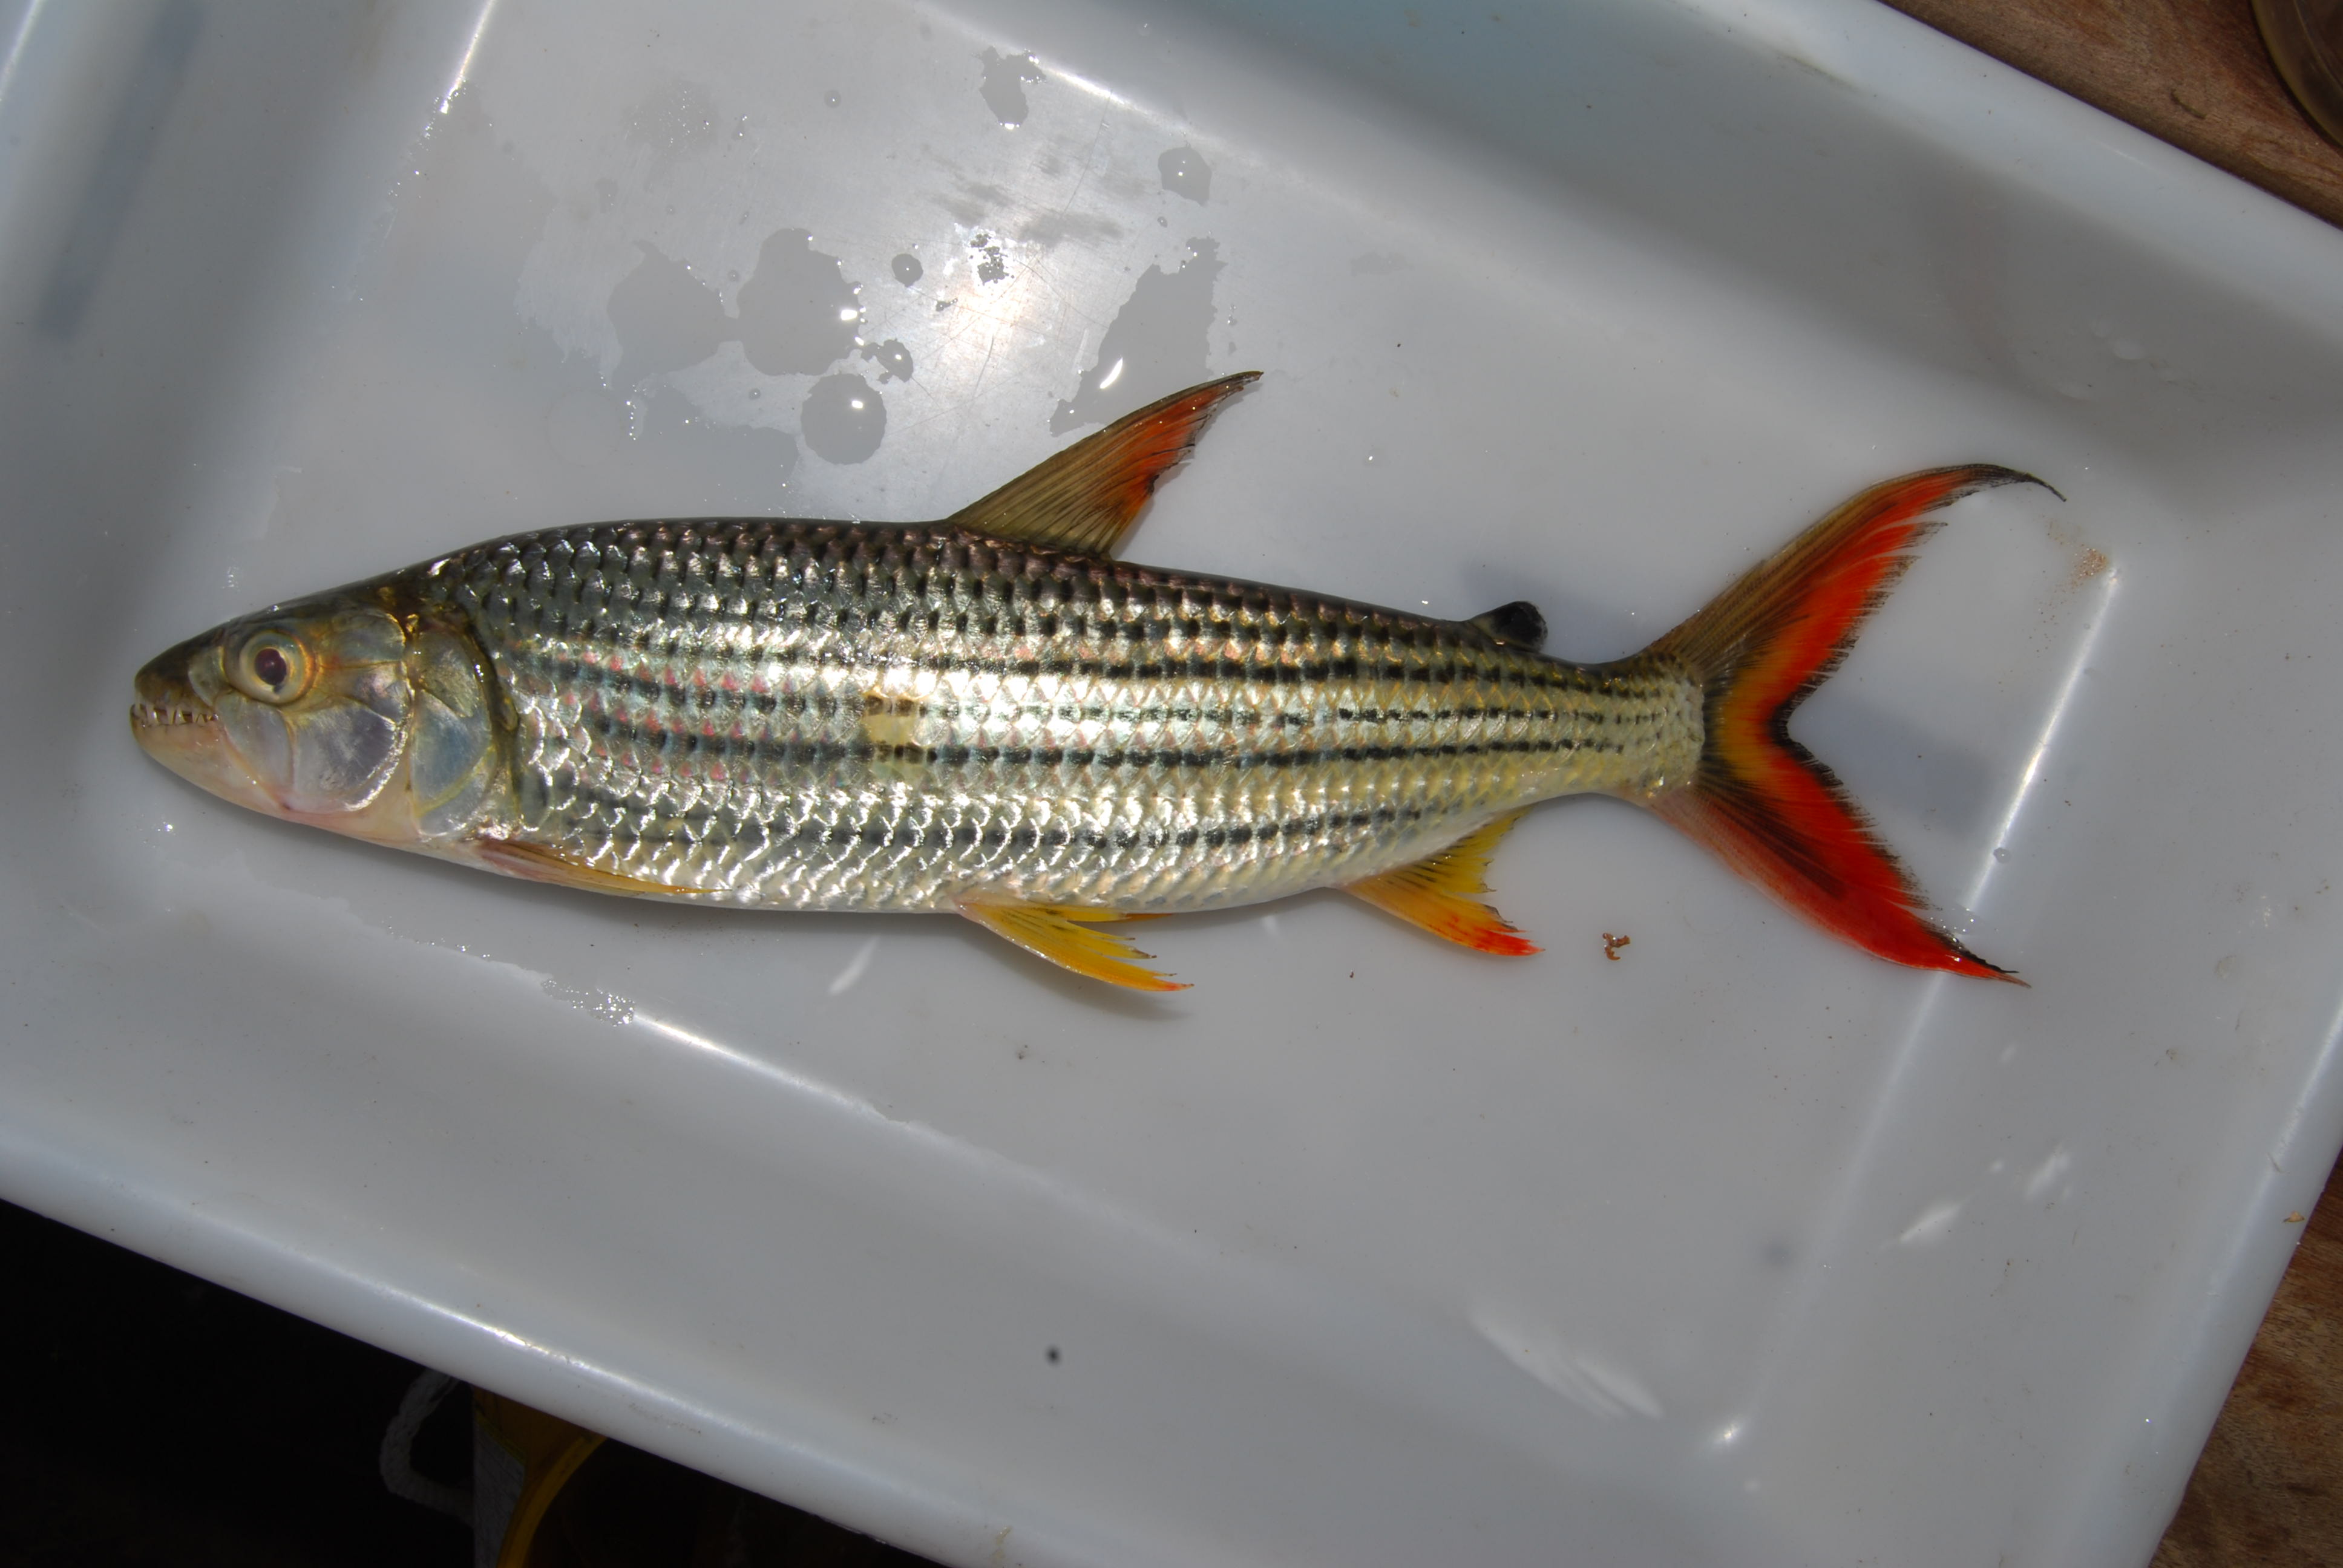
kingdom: Animalia
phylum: Chordata
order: Characiformes
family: Alestidae
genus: Hydrocynus
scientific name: Hydrocynus vittatus
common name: Tigerfish
